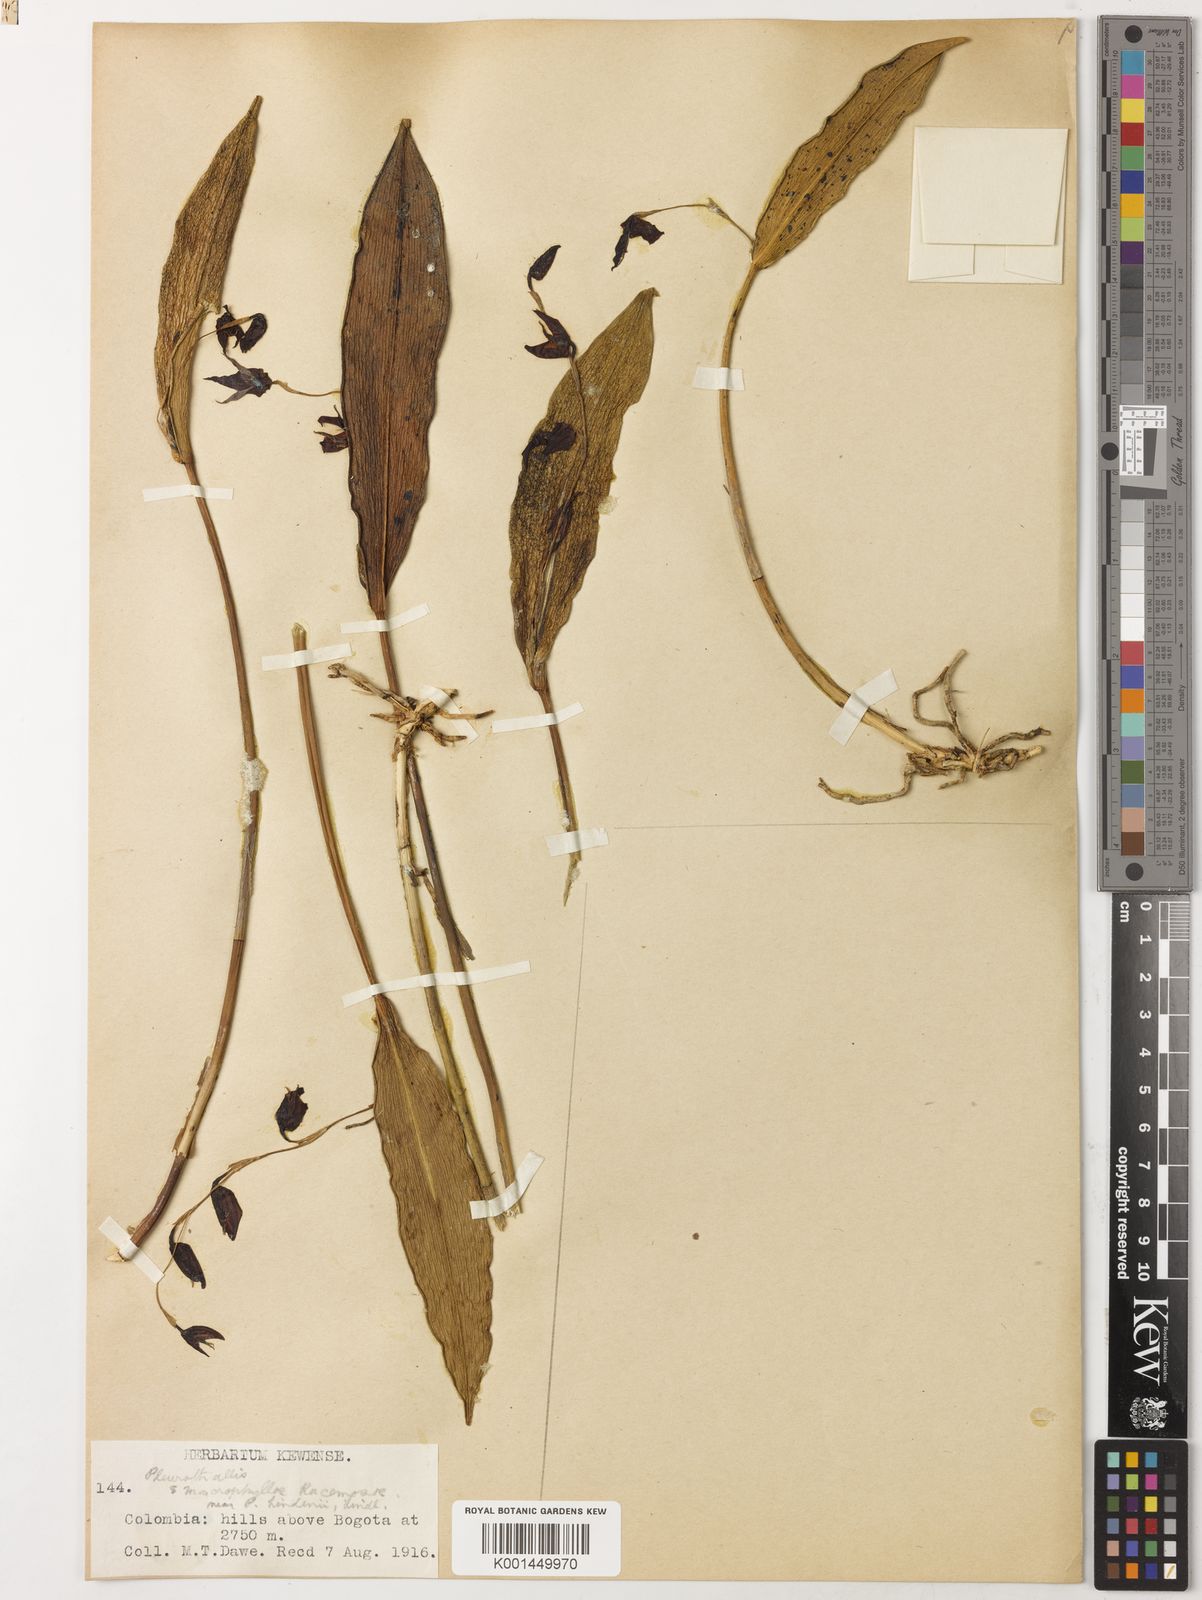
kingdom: Plantae
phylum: Tracheophyta
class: Liliopsida
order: Asparagales
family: Orchidaceae
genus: Pleurothallis
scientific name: Pleurothallis lindenii
